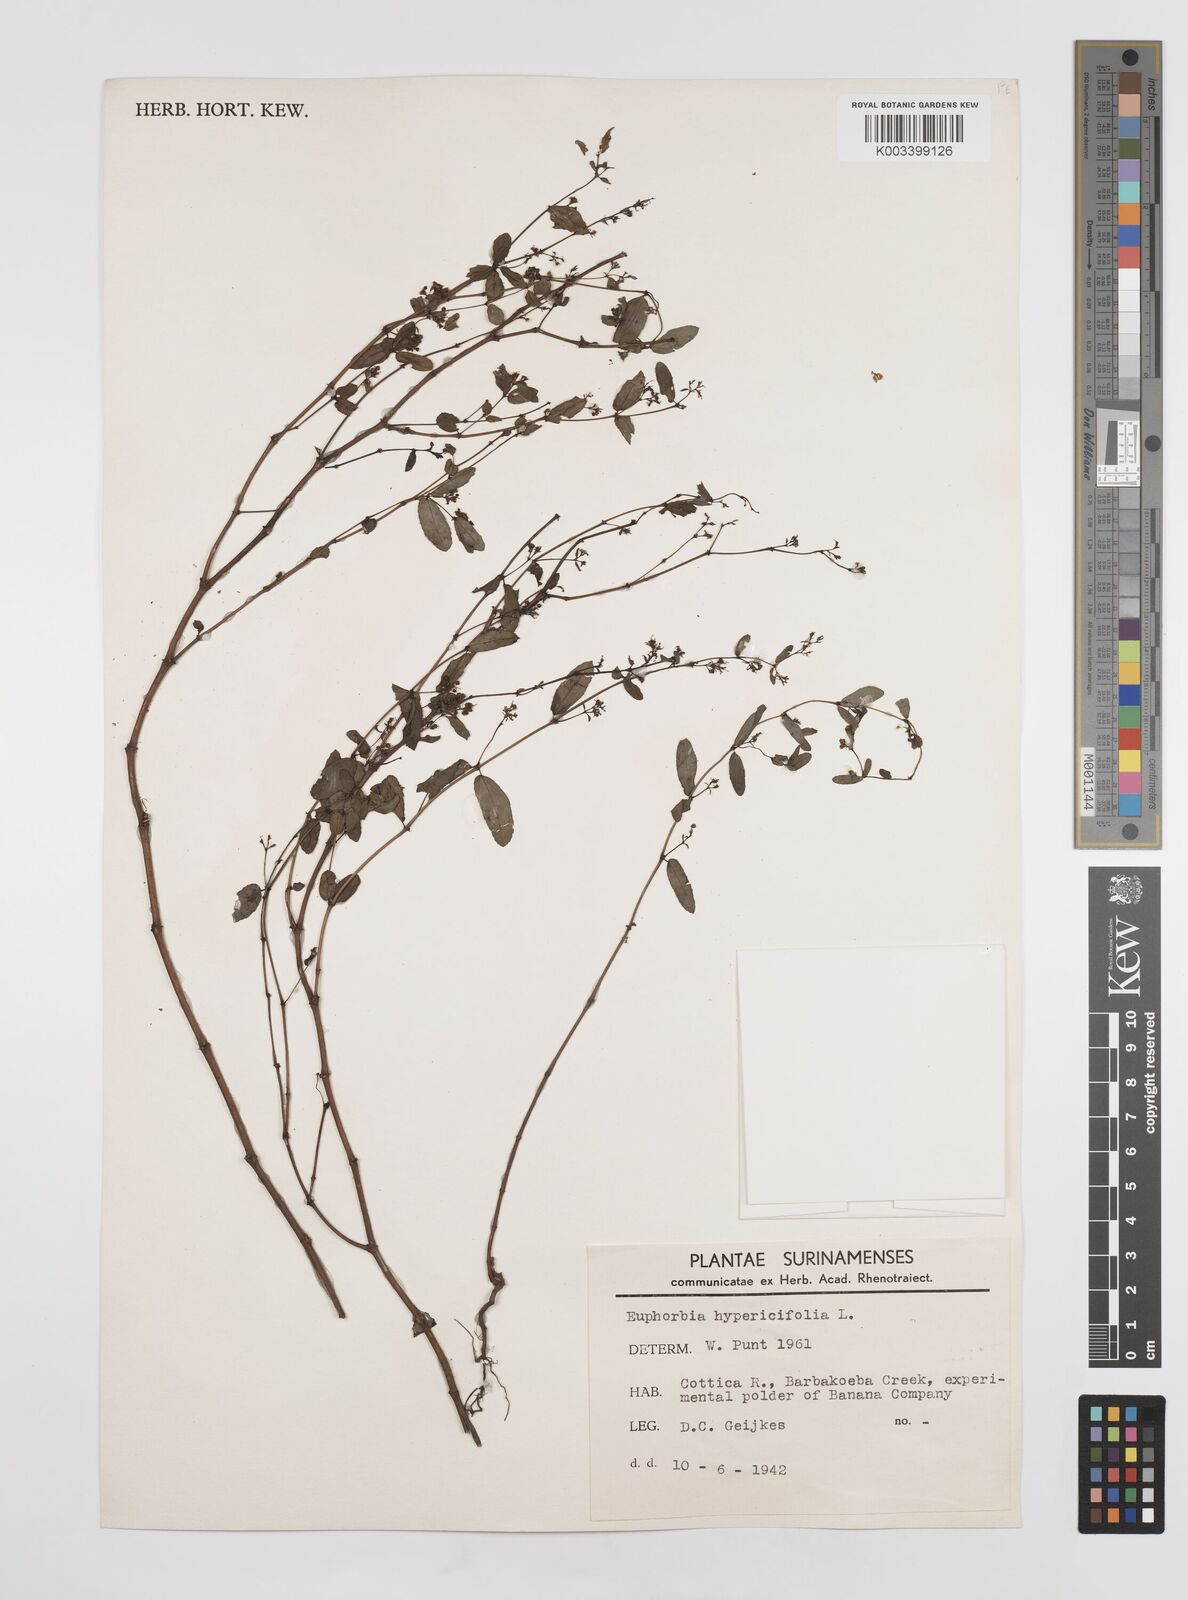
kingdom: Plantae
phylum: Tracheophyta
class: Magnoliopsida
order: Malpighiales
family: Euphorbiaceae
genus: Euphorbia
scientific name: Euphorbia hypericifolia
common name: Graceful sandmat
